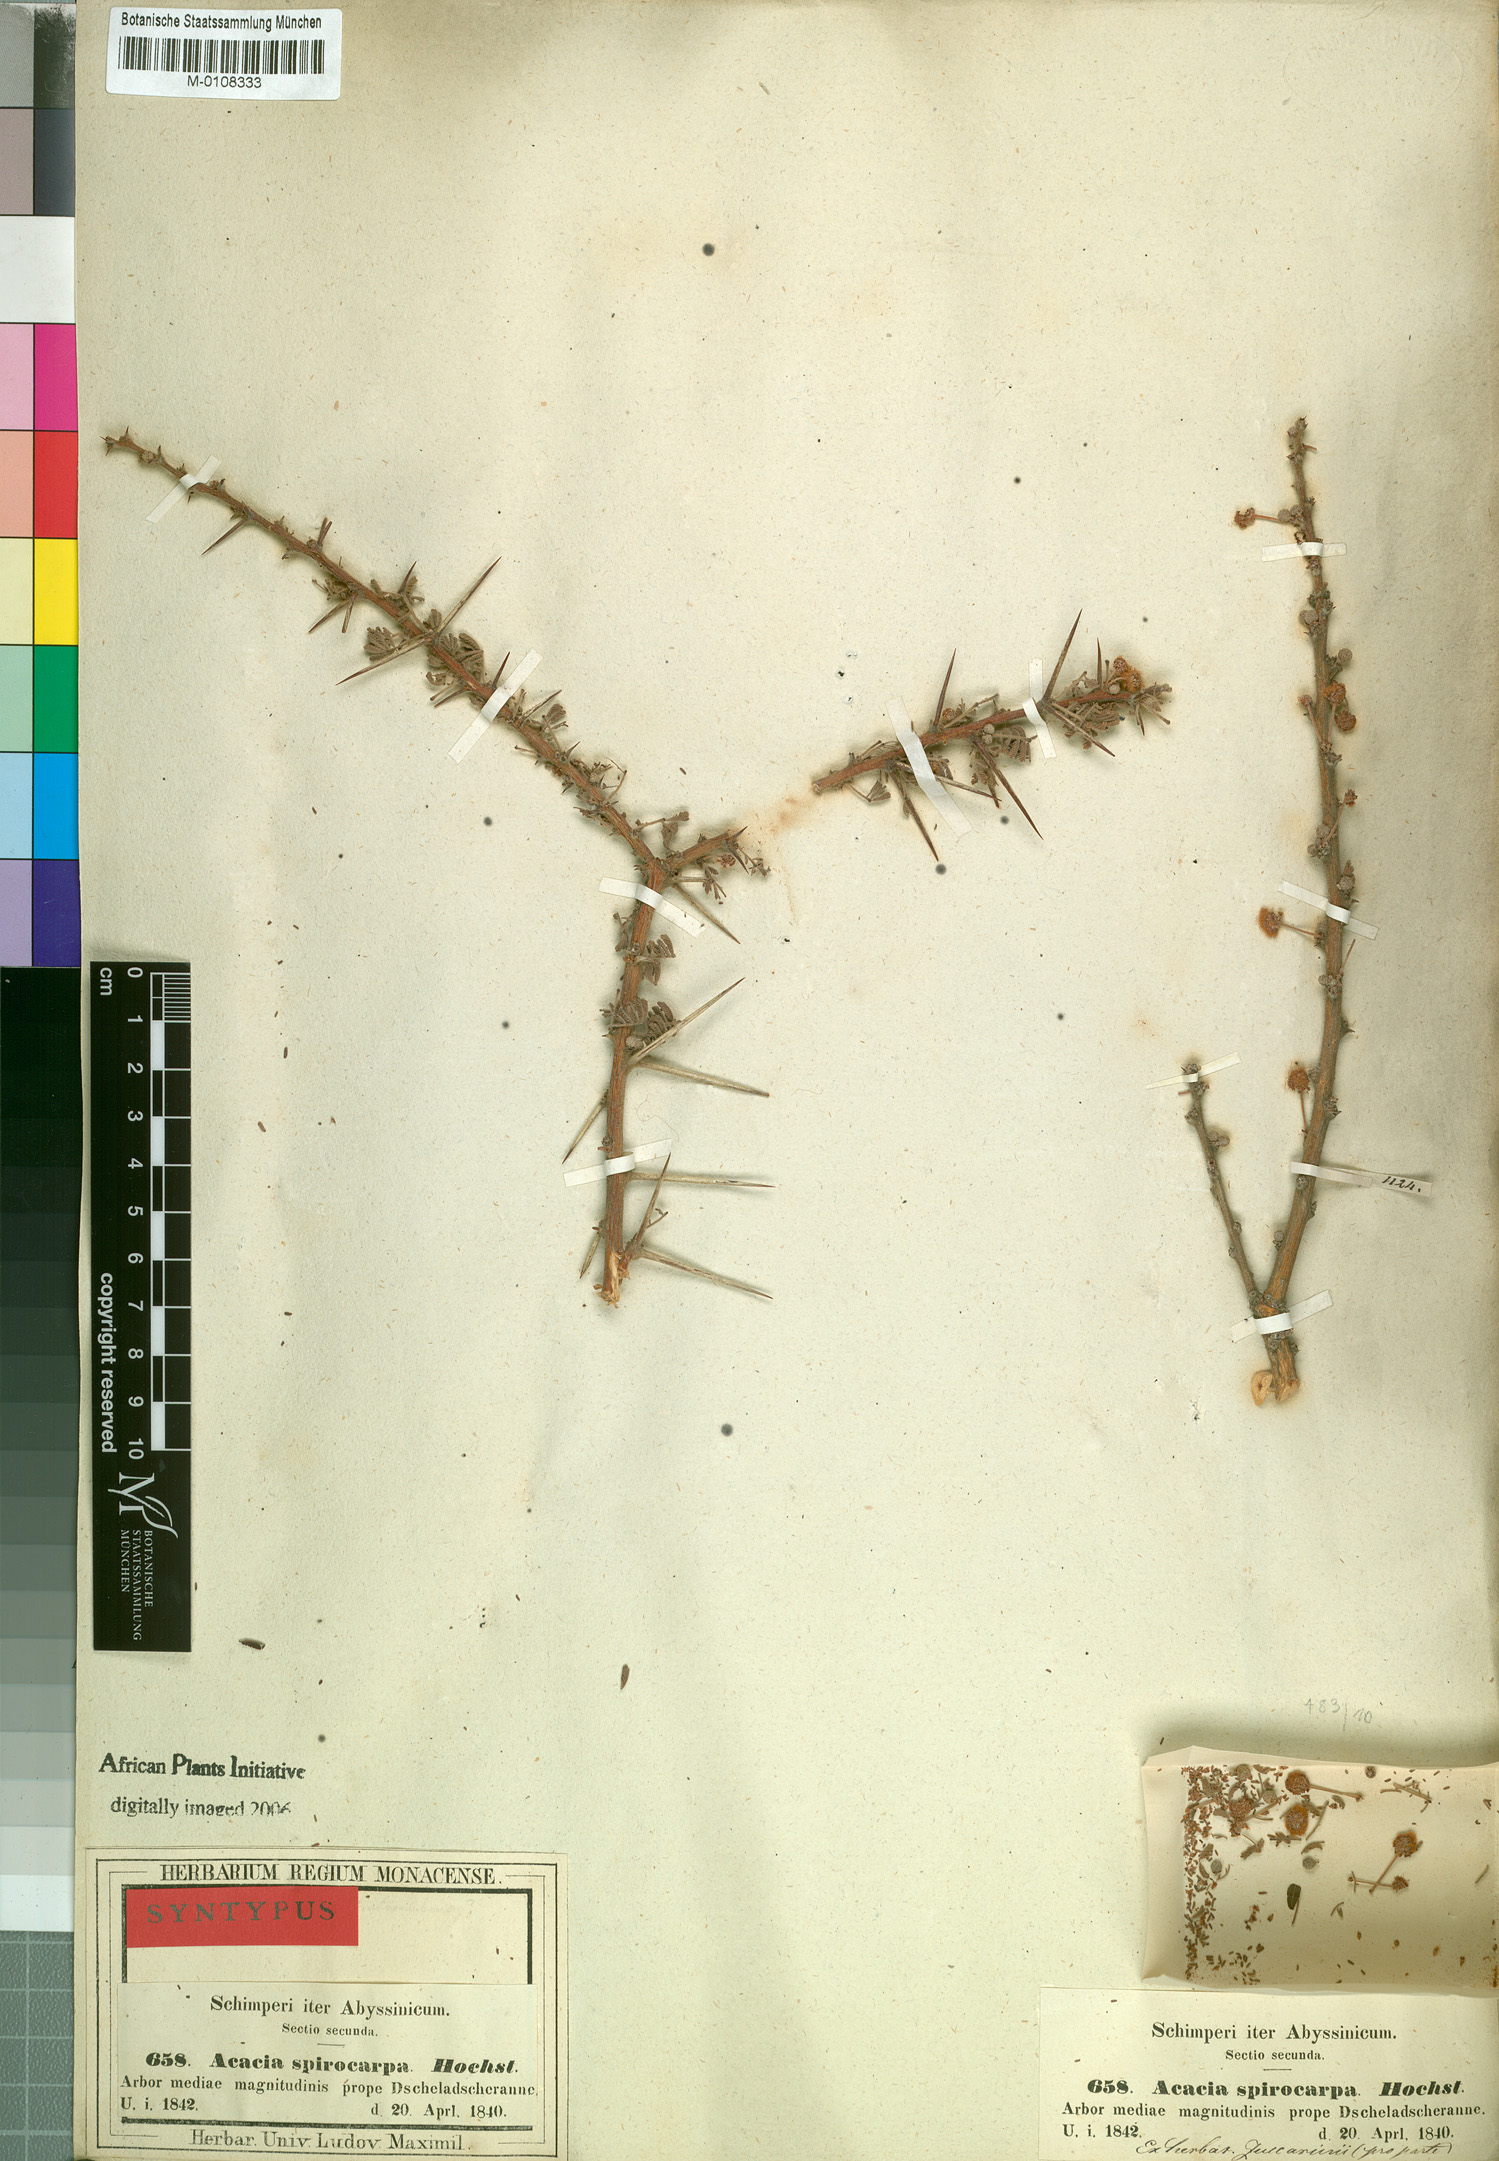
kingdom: Plantae
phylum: Tracheophyta
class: Magnoliopsida
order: Fabales
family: Fabaceae
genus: Vachellia
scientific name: Vachellia tortilis
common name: Umbrella thorn acacia
